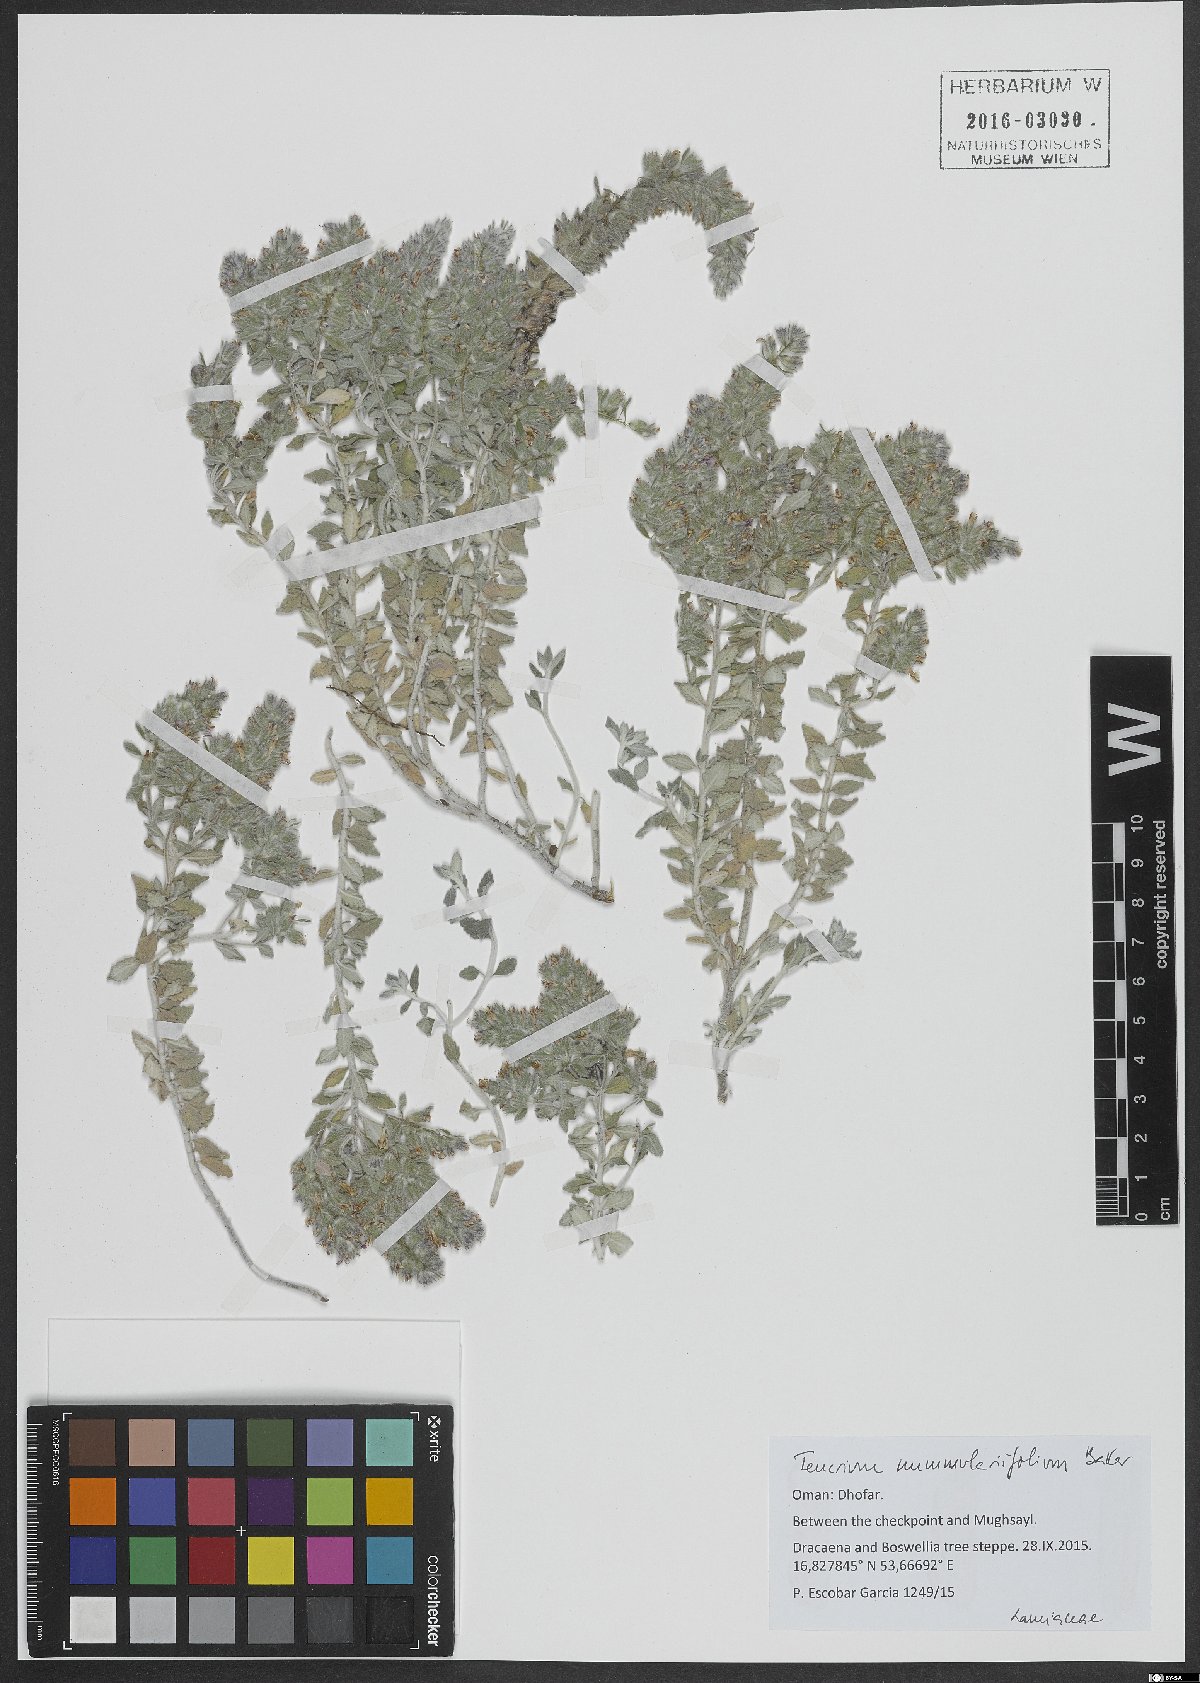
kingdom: Plantae
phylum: Tracheophyta
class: Magnoliopsida
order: Lamiales
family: Lamiaceae
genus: Teucrium
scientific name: Teucrium nummulariifolium
